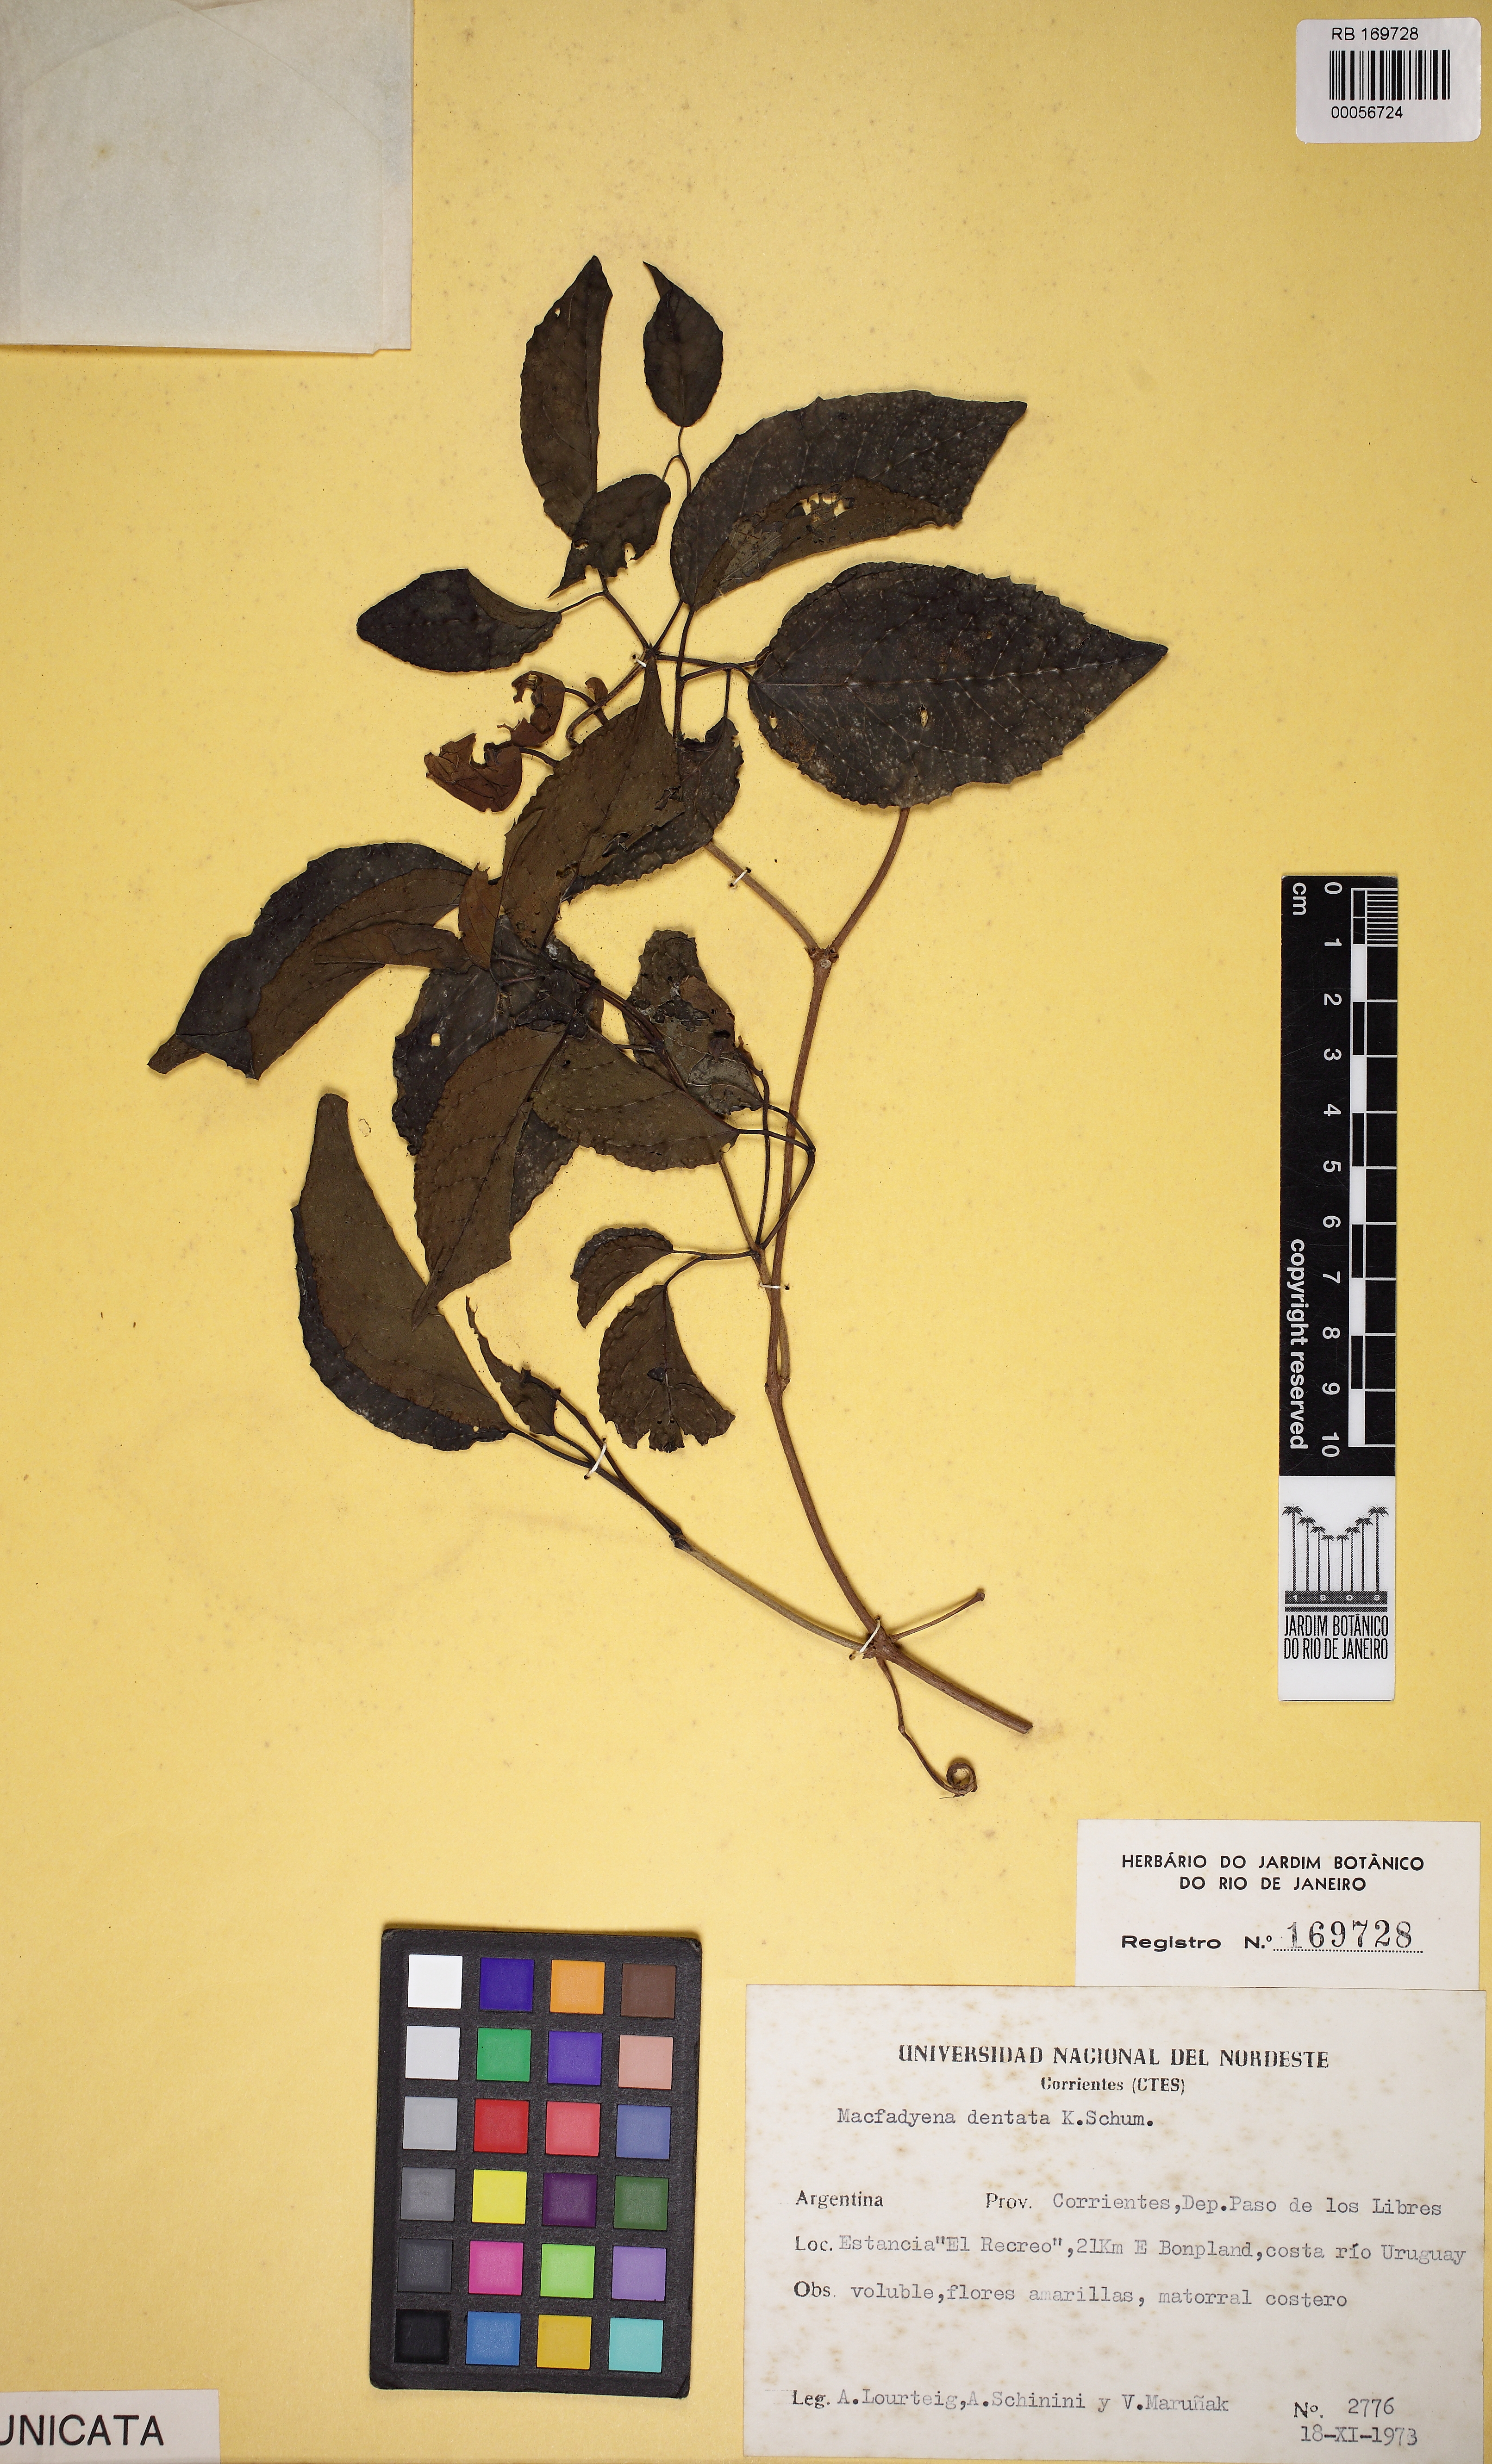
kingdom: Plantae
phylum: Tracheophyta
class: Magnoliopsida
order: Lamiales
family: Bignoniaceae
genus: Dolichandra
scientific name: Dolichandra dentata
